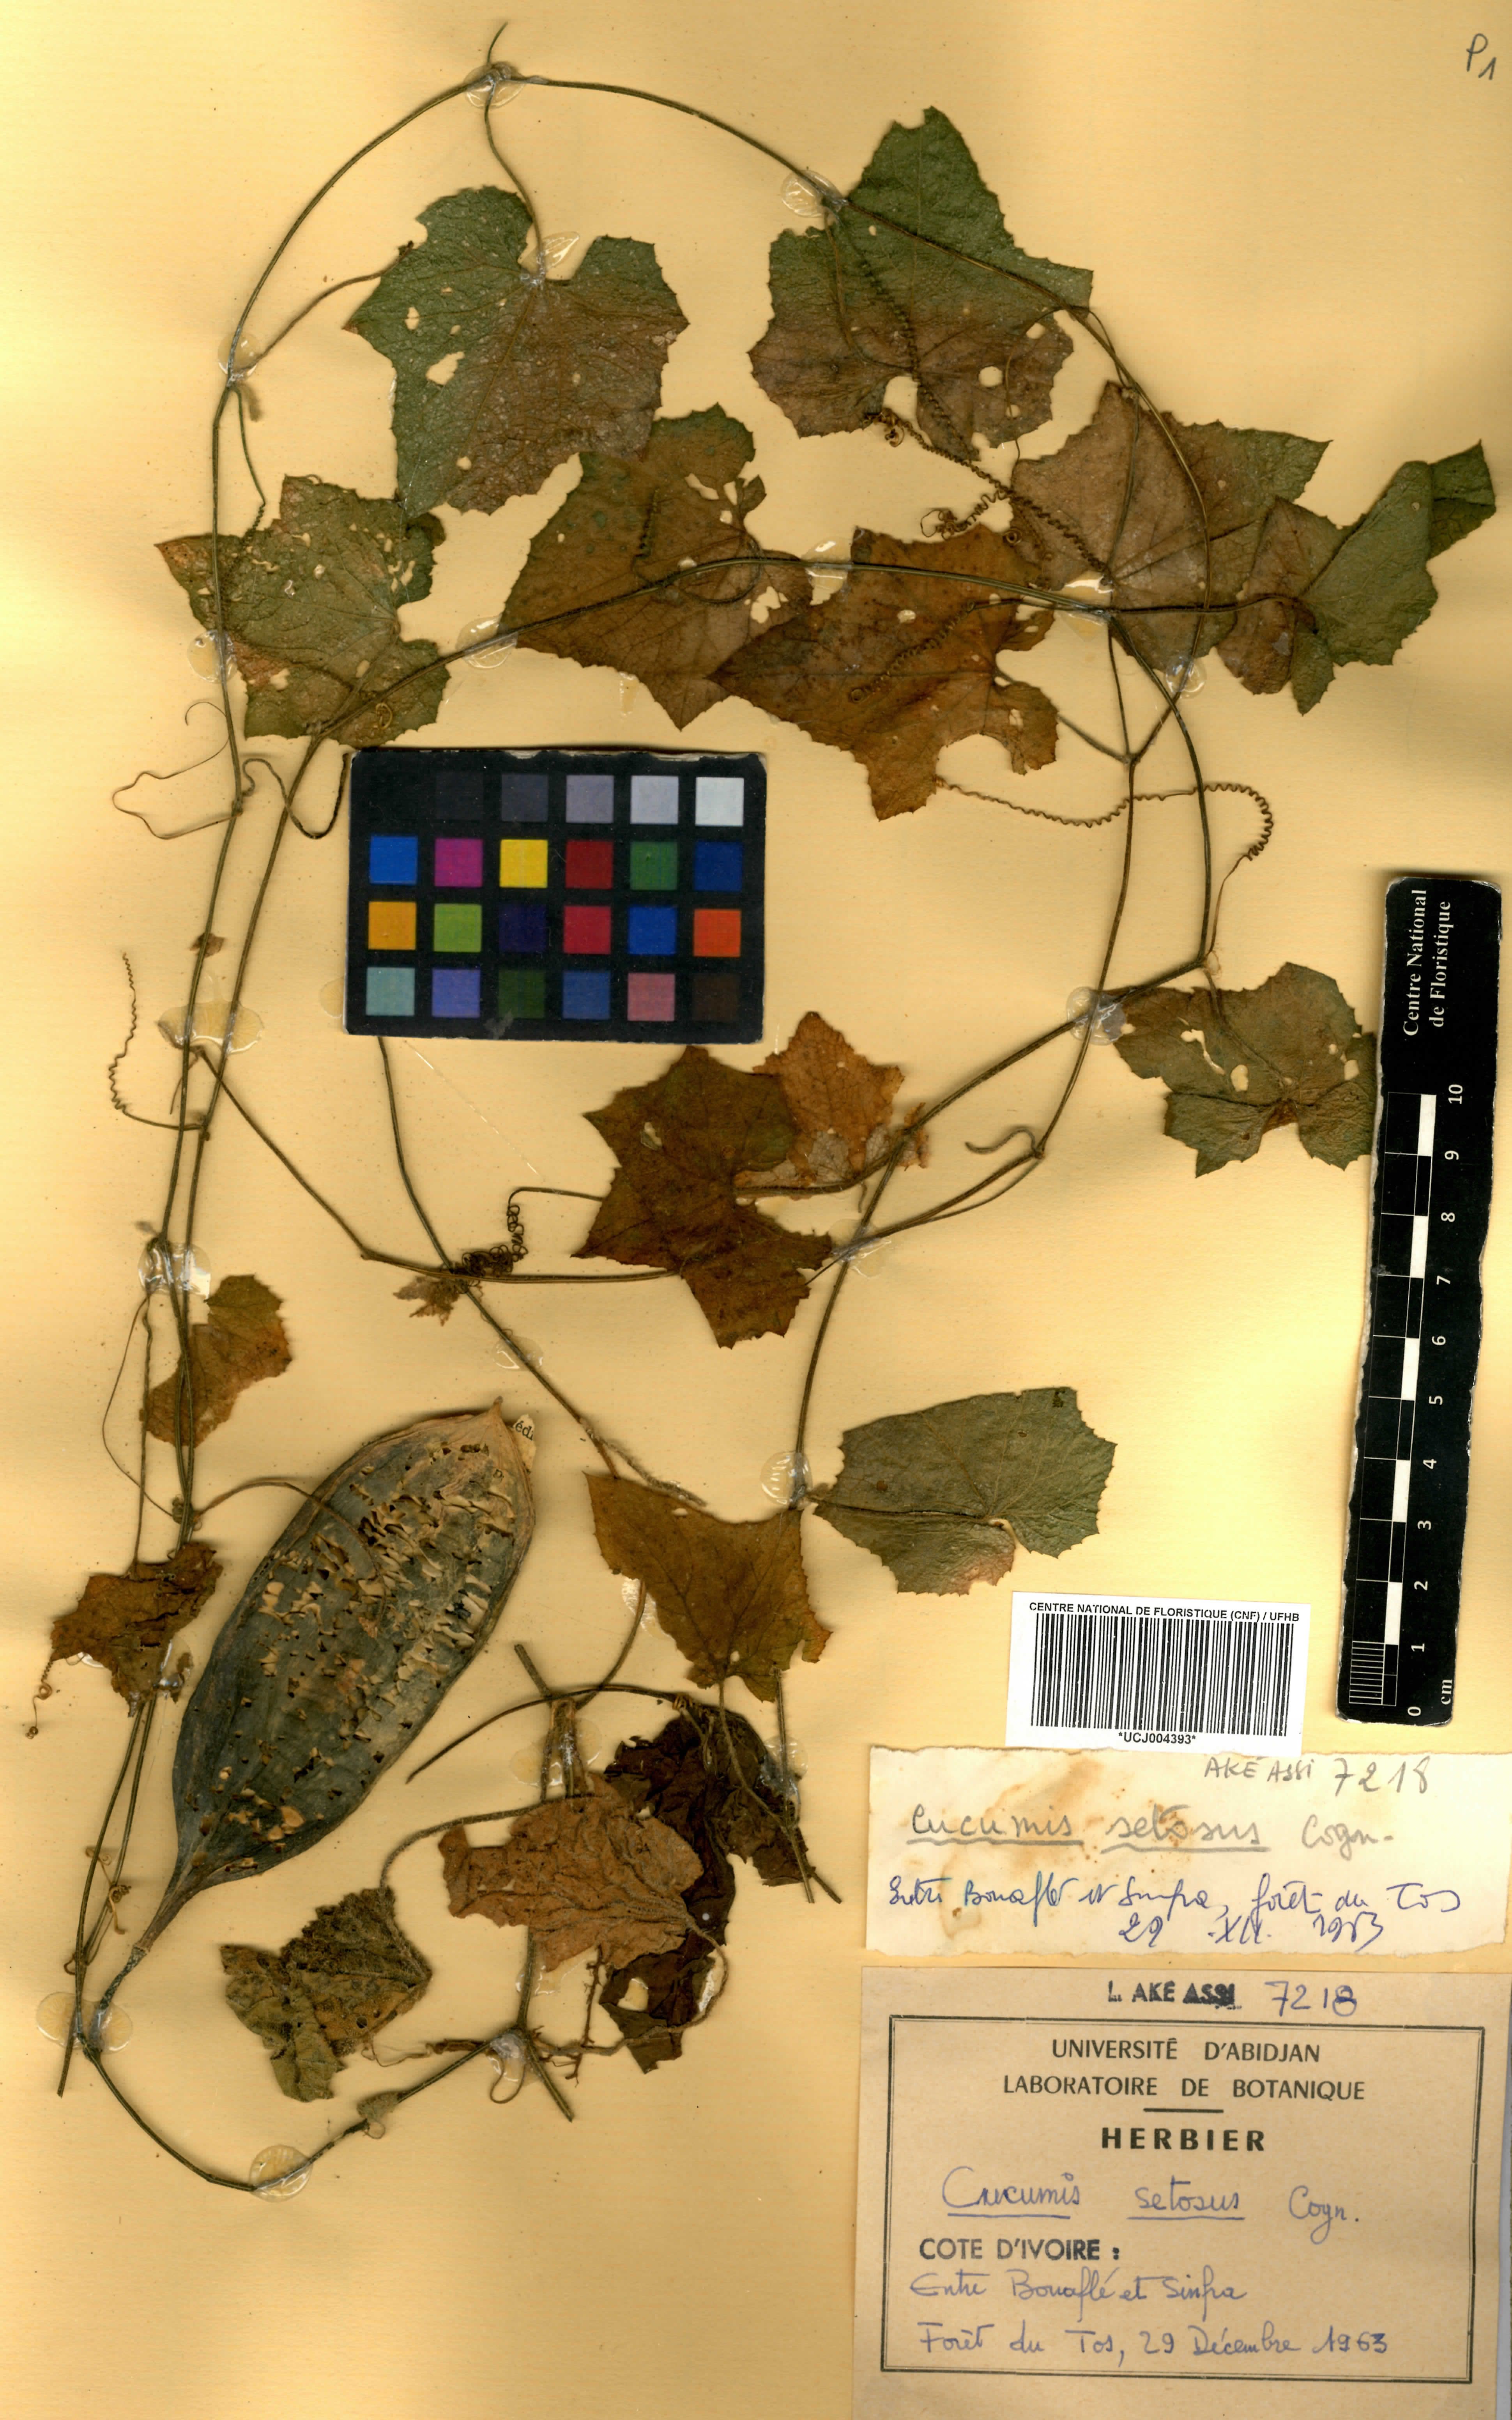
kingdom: Plantae
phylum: Tracheophyta
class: Magnoliopsida
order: Cucurbitales
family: Cucurbitaceae
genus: Cucumis
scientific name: Cucumis setosus
